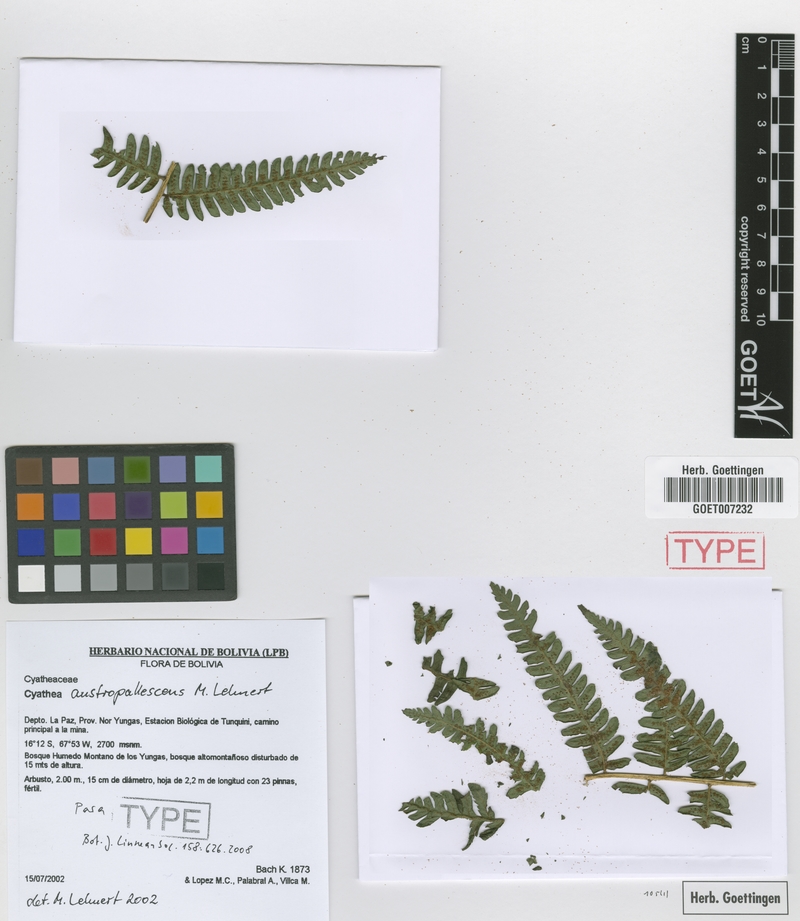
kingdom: Plantae
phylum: Tracheophyta
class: Polypodiopsida
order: Cyatheales
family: Cyatheaceae
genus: Cyathea
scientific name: Cyathea austropallescens
